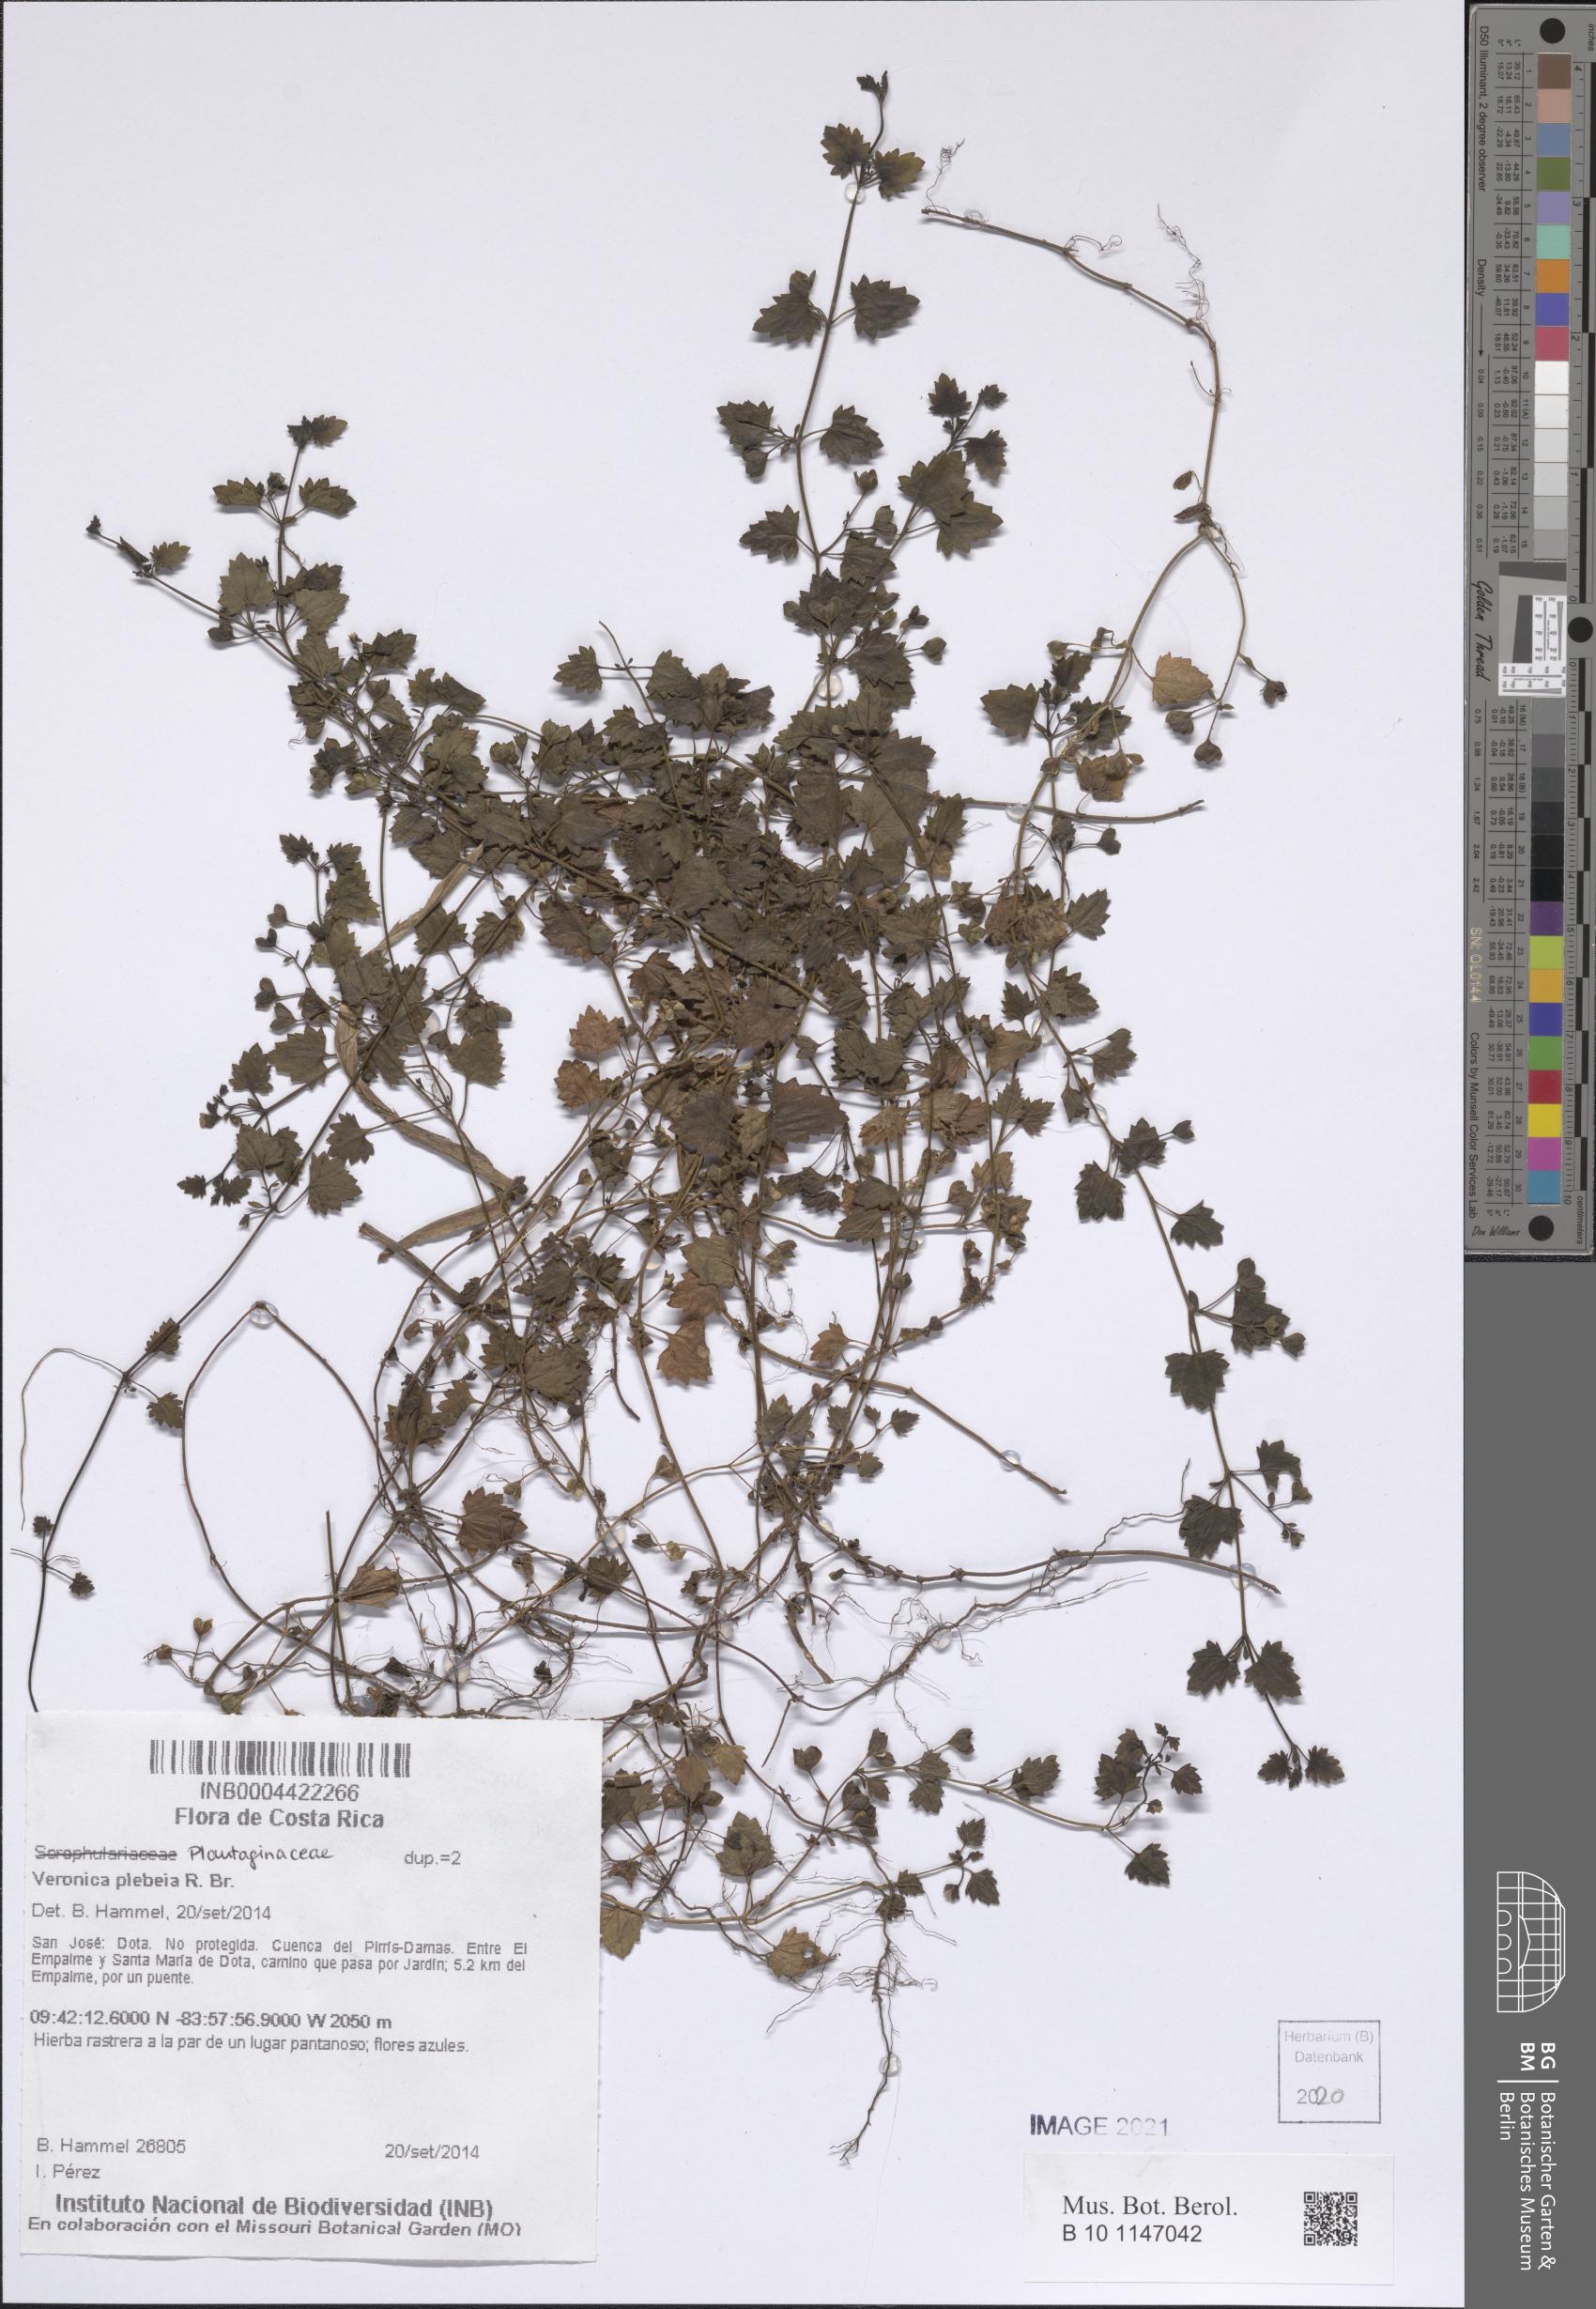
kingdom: Plantae
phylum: Tracheophyta
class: Magnoliopsida
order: Lamiales
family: Plantaginaceae
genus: Veronica
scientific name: Veronica plebeia
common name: Speedwell
